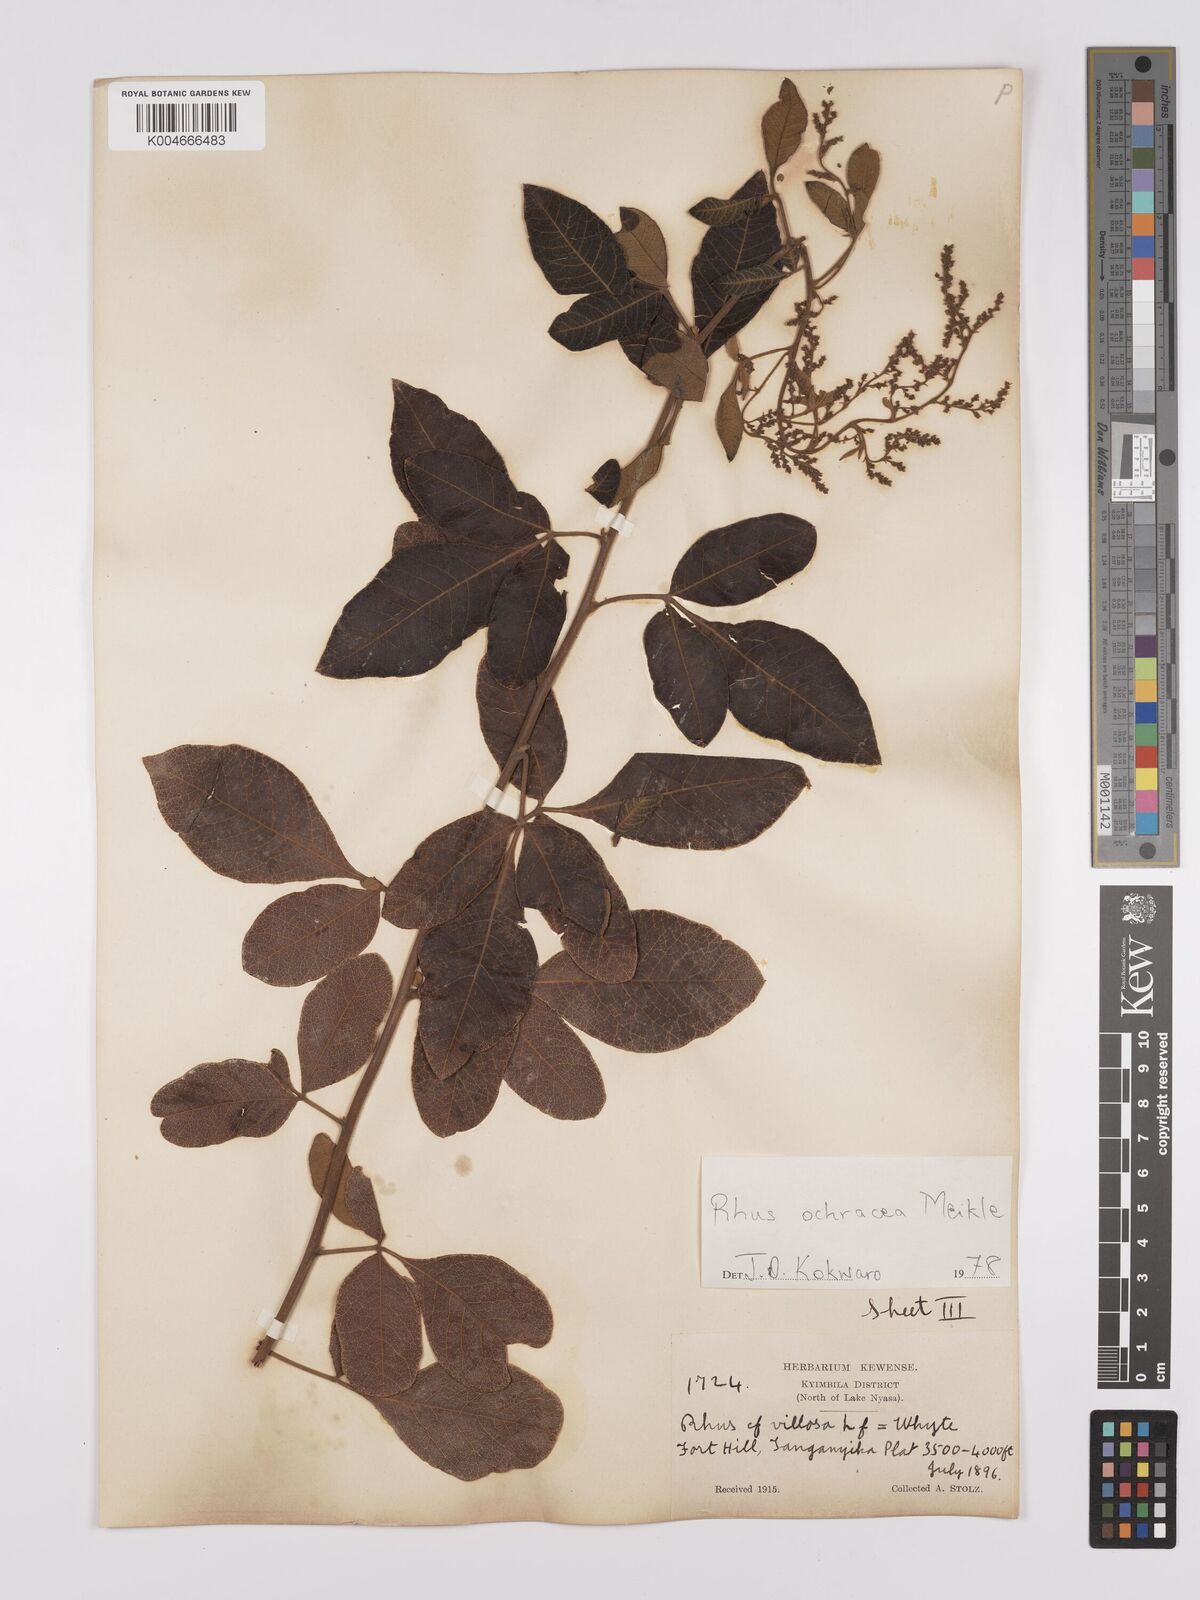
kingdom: Plantae
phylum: Tracheophyta
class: Magnoliopsida
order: Sapindales
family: Anacardiaceae
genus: Searsia
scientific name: Searsia ochracea
